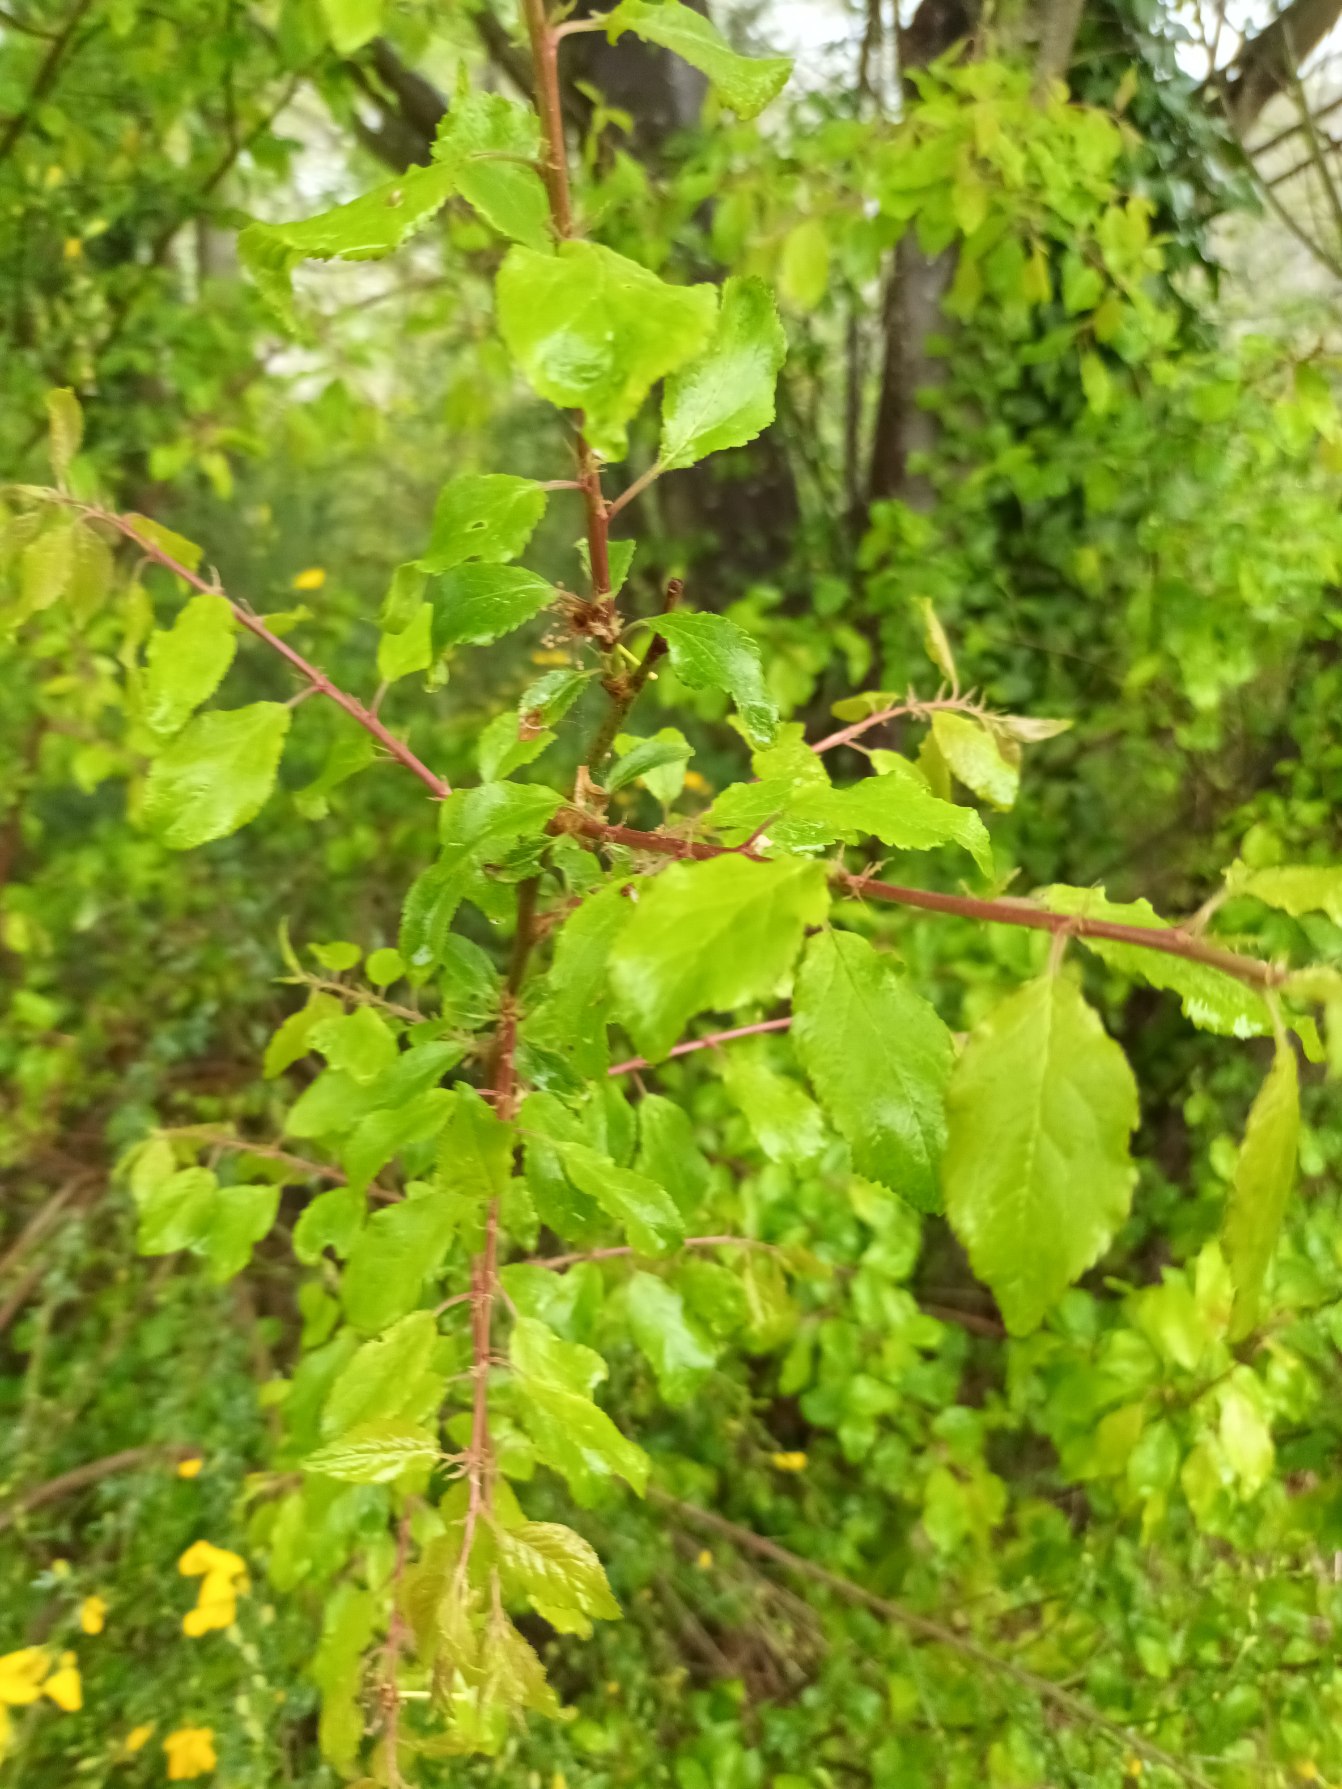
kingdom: Plantae
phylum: Tracheophyta
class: Magnoliopsida
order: Rosales
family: Rosaceae
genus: Prunus
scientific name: Prunus cerasifera
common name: Mirabel
